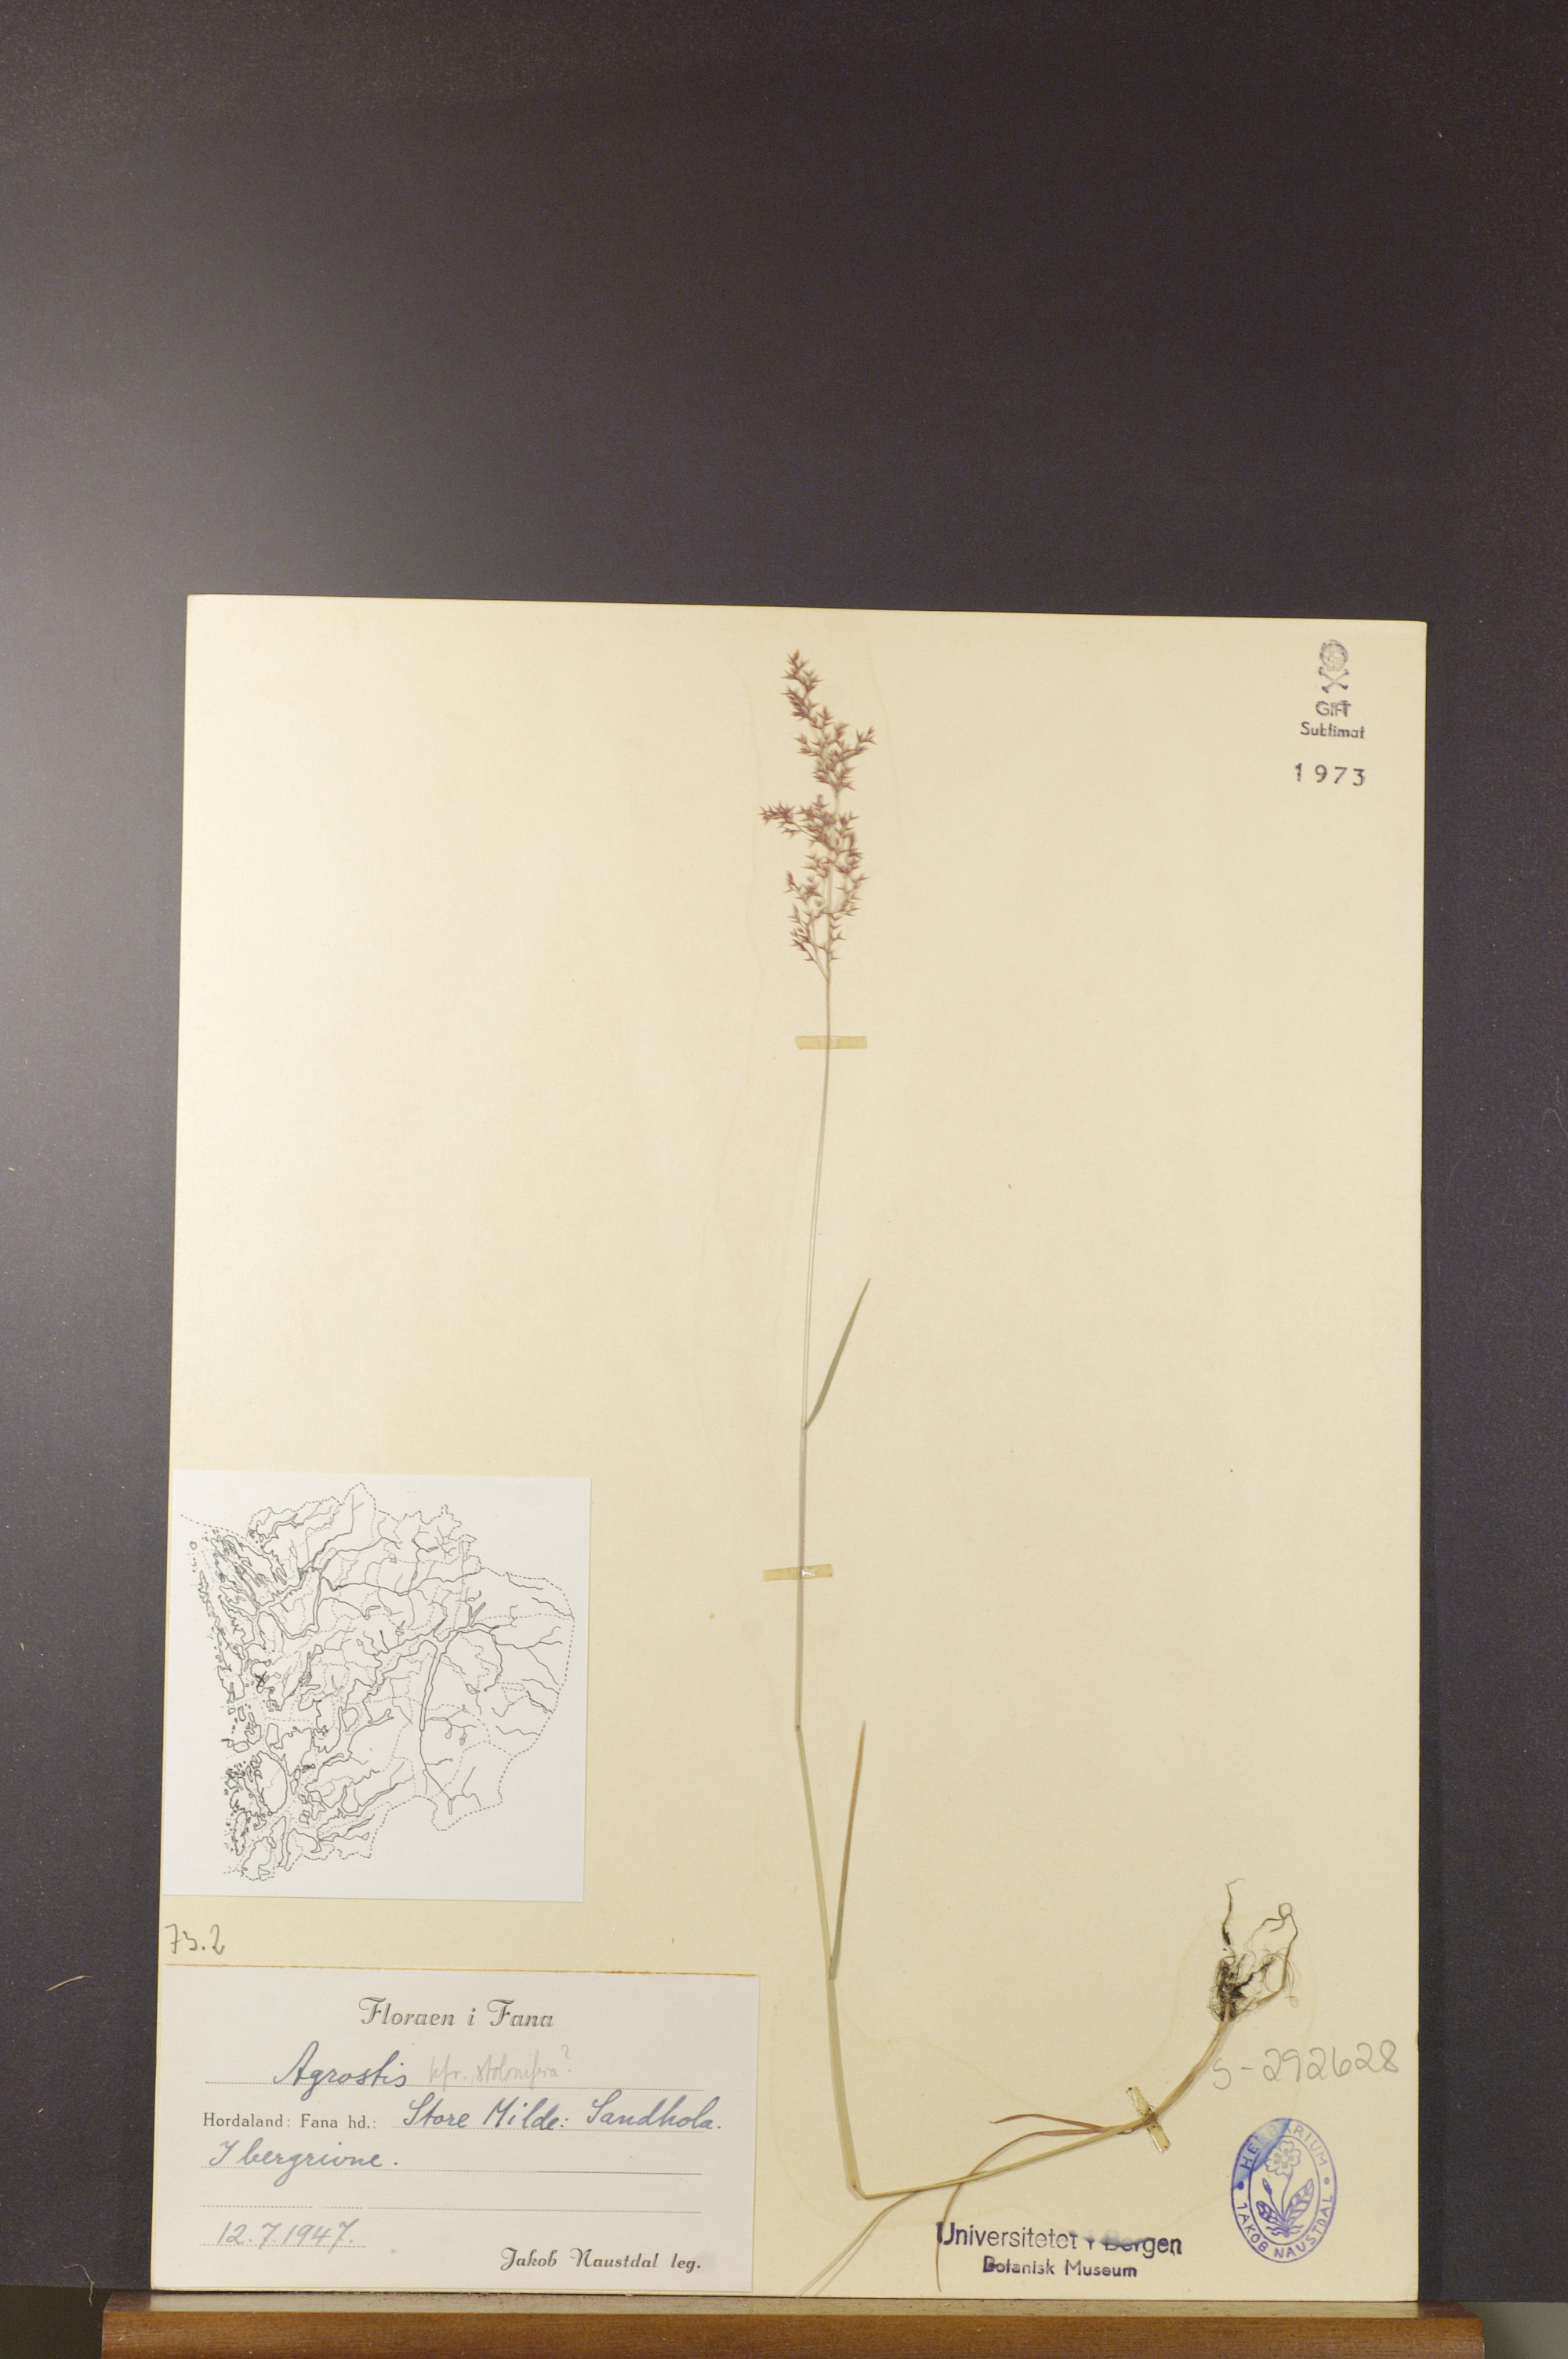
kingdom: Plantae
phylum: Tracheophyta
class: Liliopsida
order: Poales
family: Poaceae
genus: Agrostis
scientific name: Agrostis stolonifera
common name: Creeping bentgrass
